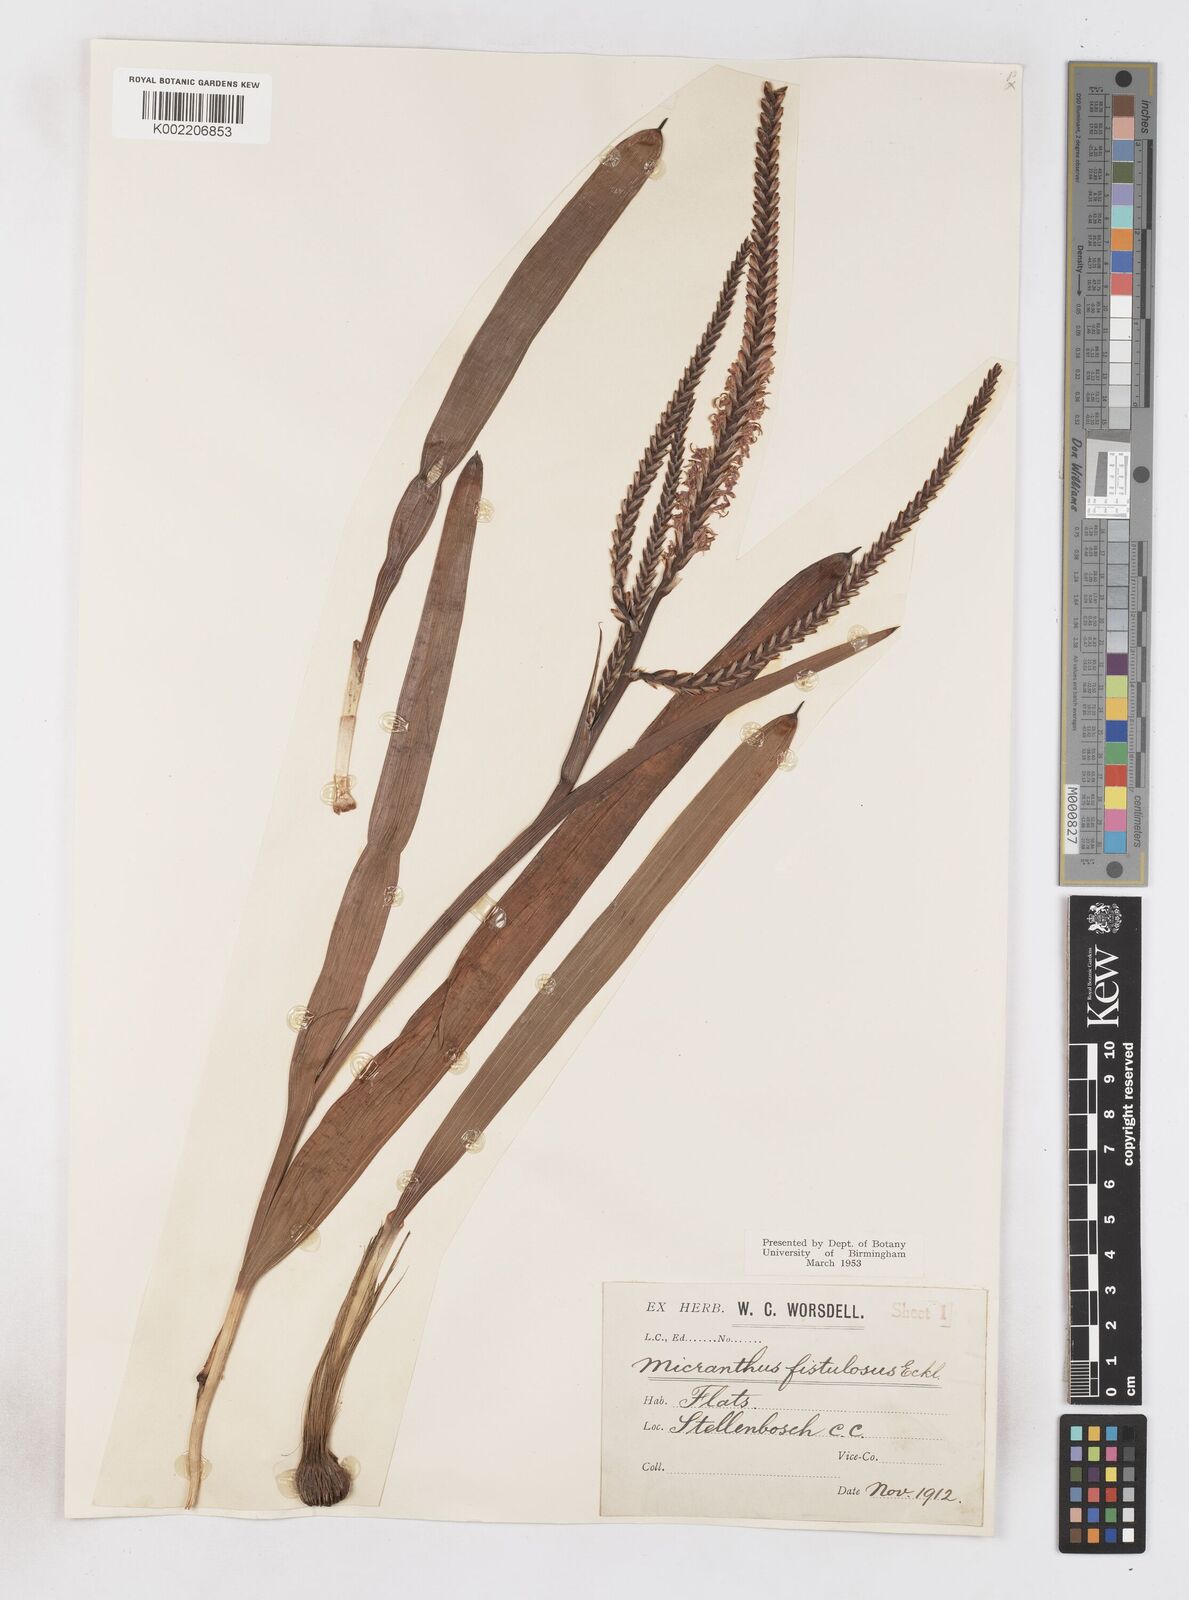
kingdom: Plantae
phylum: Tracheophyta
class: Liliopsida
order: Asparagales
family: Iridaceae
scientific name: Iridaceae
